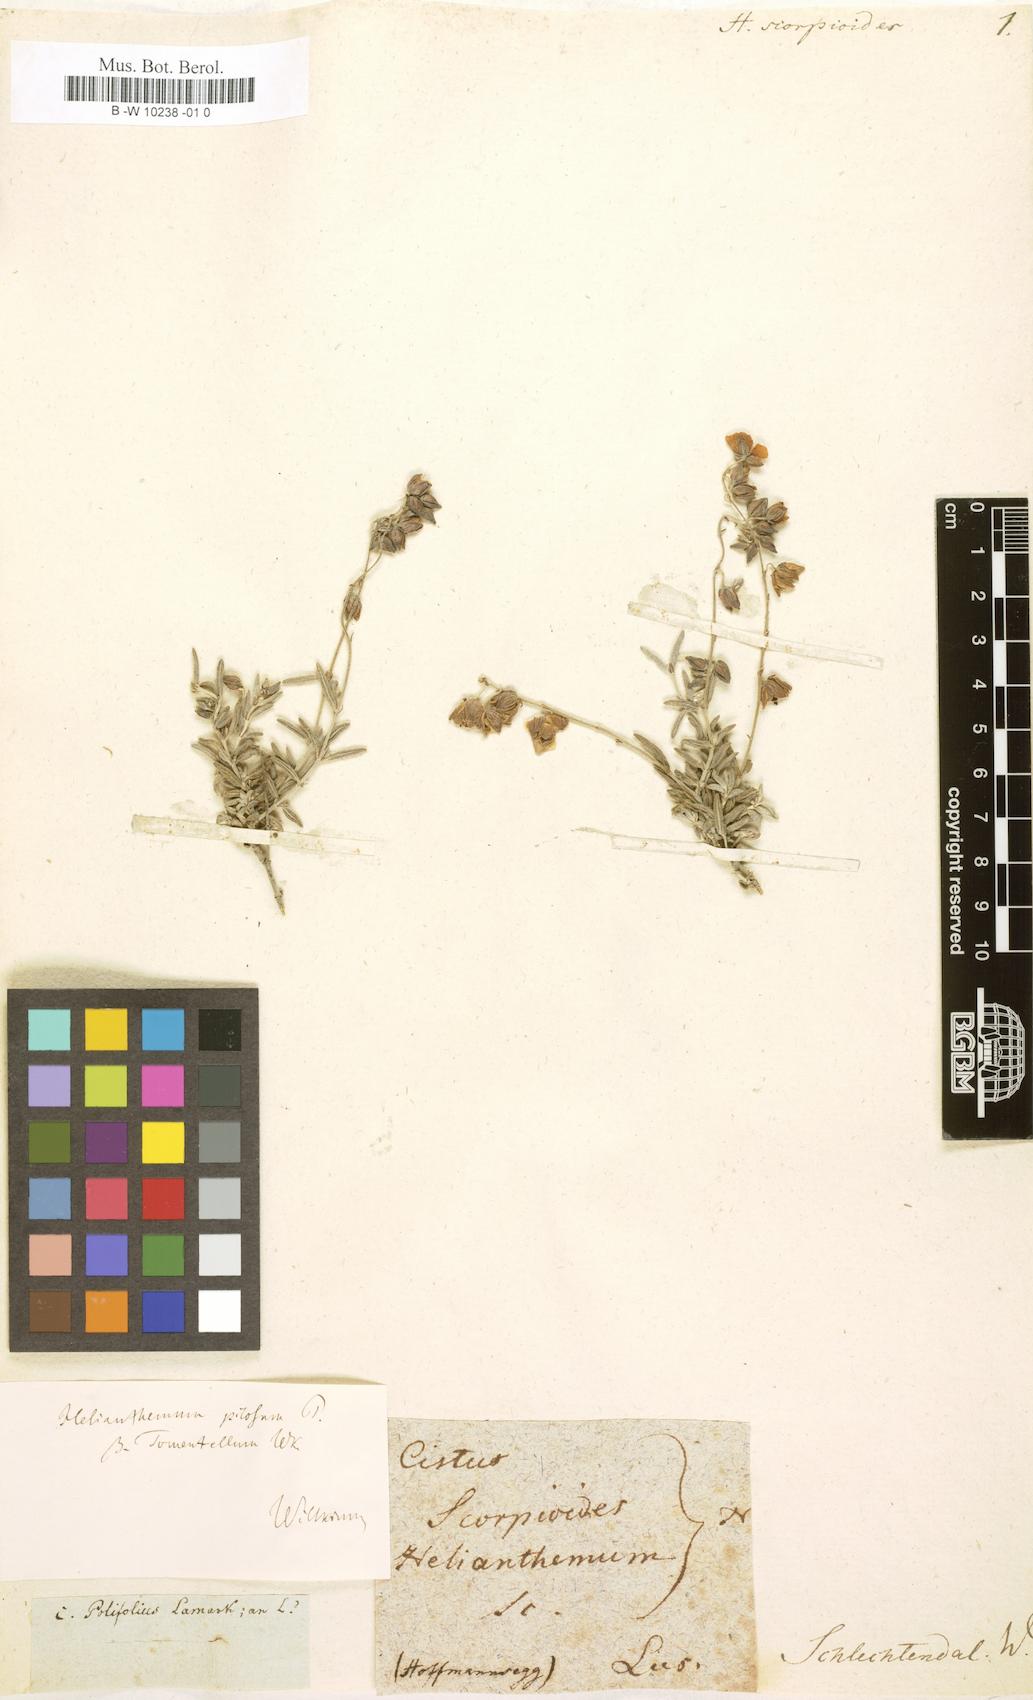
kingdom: Plantae
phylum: Tracheophyta
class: Magnoliopsida
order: Malvales
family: Cistaceae
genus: Tuberaria
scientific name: Tuberaria echioides
